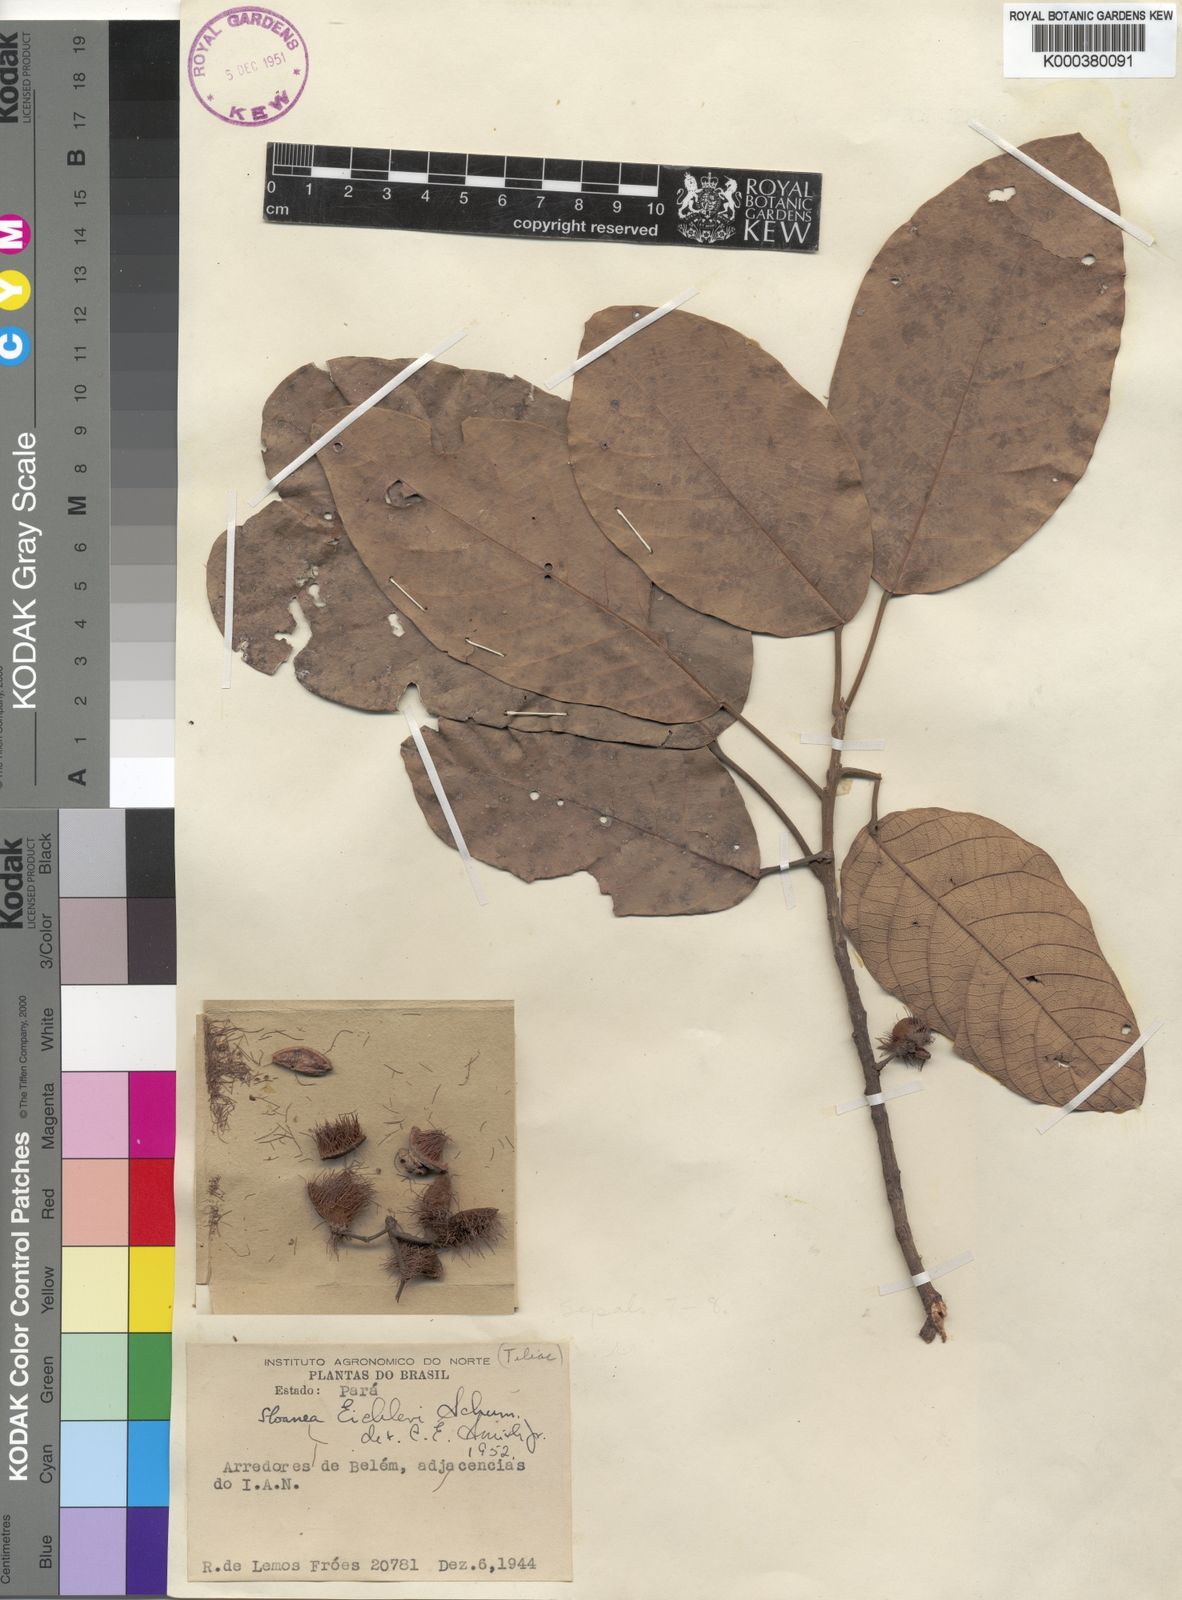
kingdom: Plantae
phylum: Tracheophyta
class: Magnoliopsida
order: Oxalidales
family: Elaeocarpaceae
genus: Sloanea
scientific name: Sloanea eichleri
